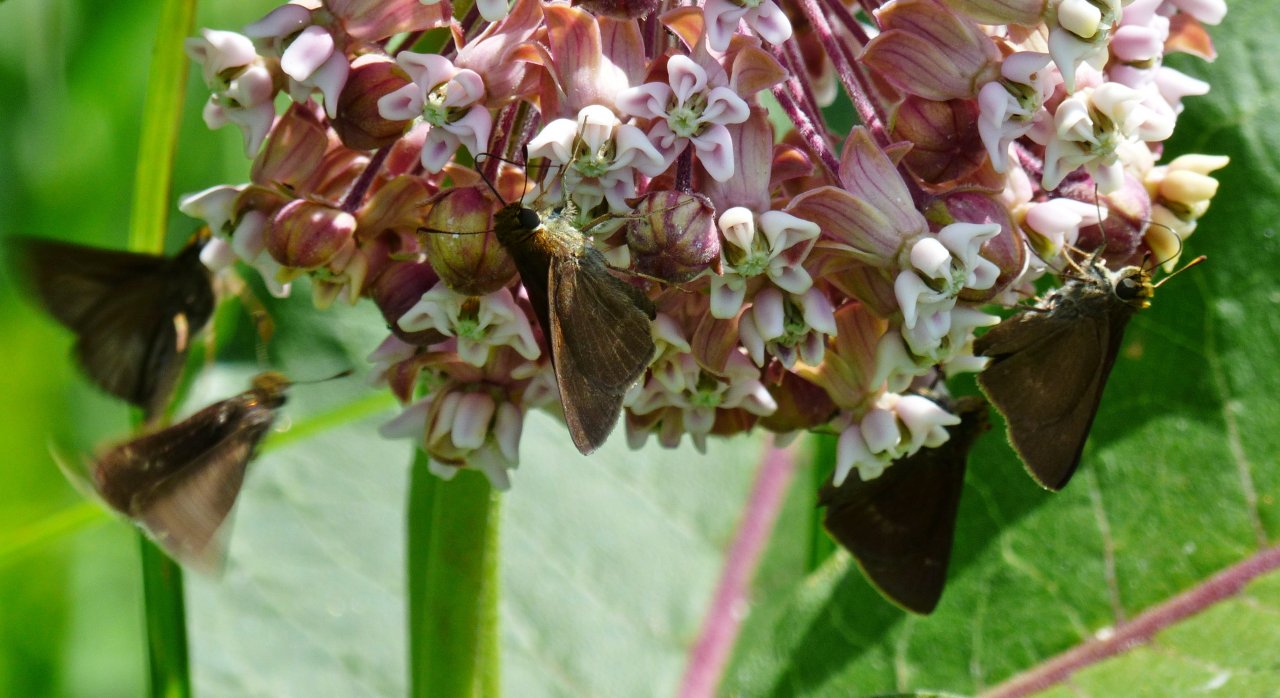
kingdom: Animalia
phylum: Arthropoda
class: Insecta
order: Lepidoptera
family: Hesperiidae
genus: Euphyes
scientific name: Euphyes vestris
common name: Dun Skipper
